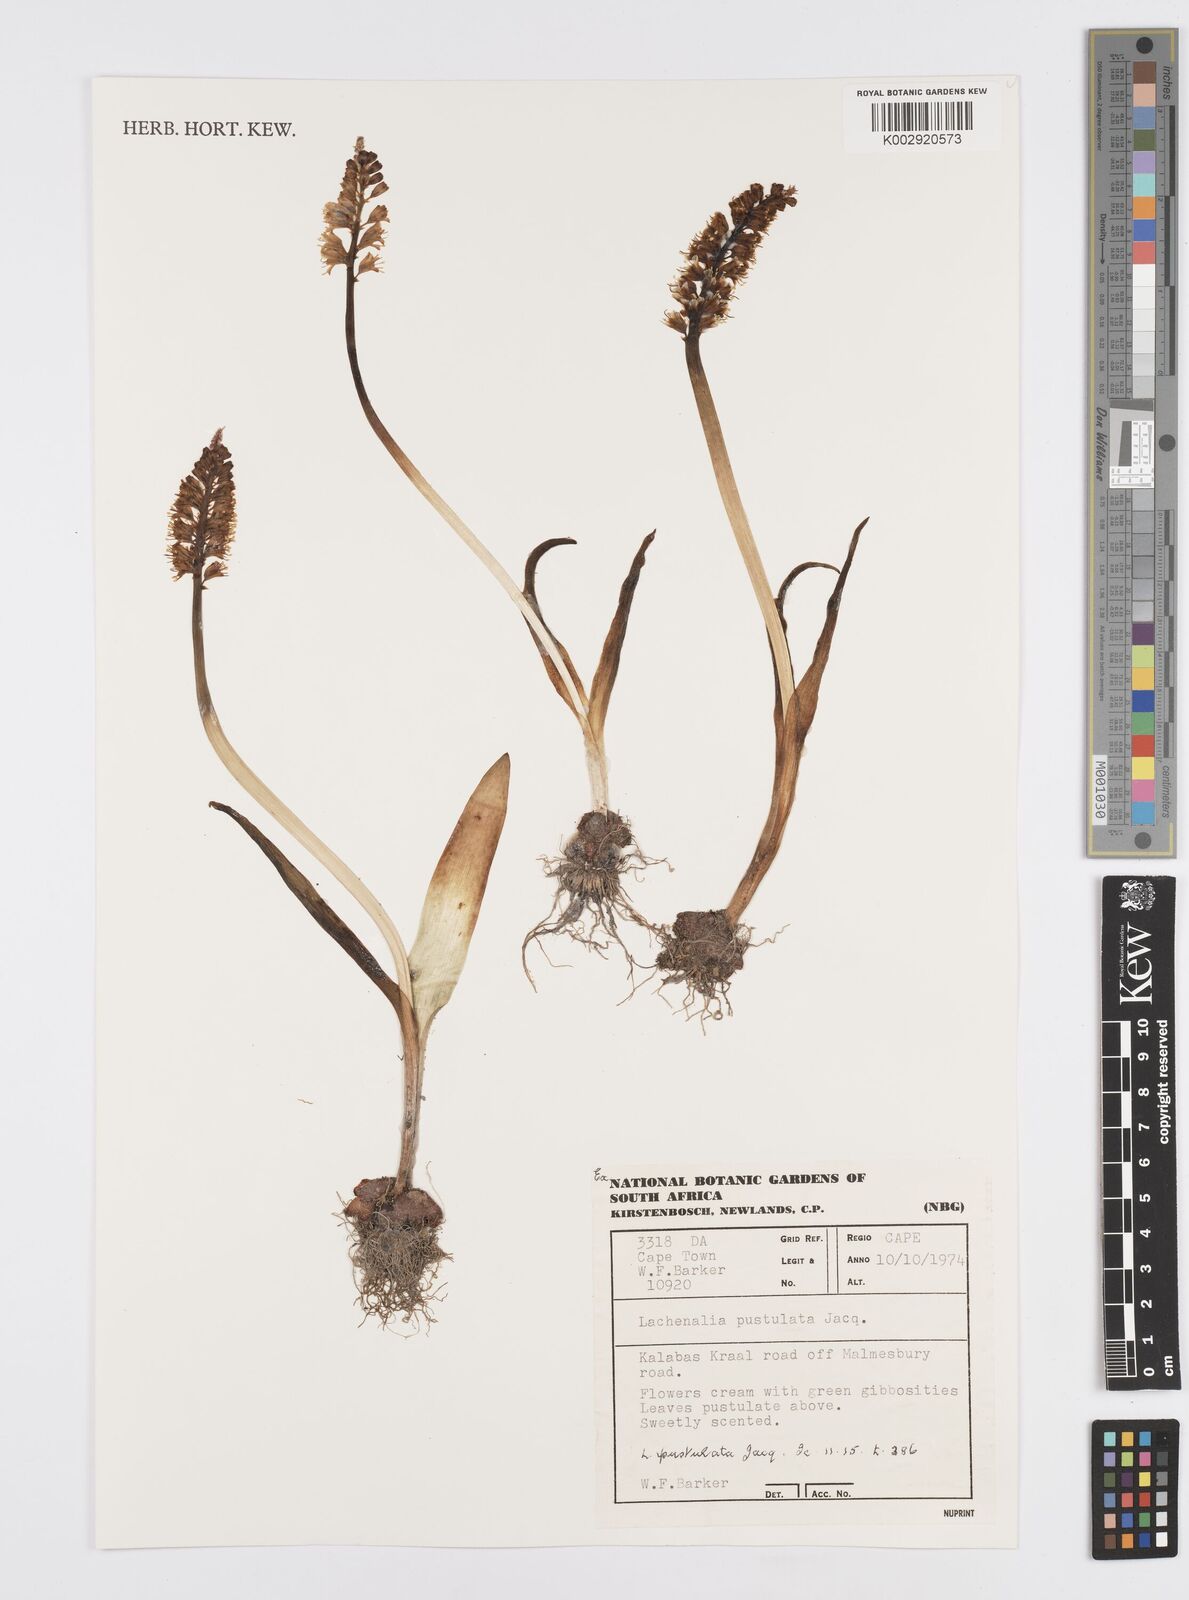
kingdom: Plantae
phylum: Tracheophyta
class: Liliopsida
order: Asparagales
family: Asparagaceae
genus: Lachenalia
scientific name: Lachenalia pallida
